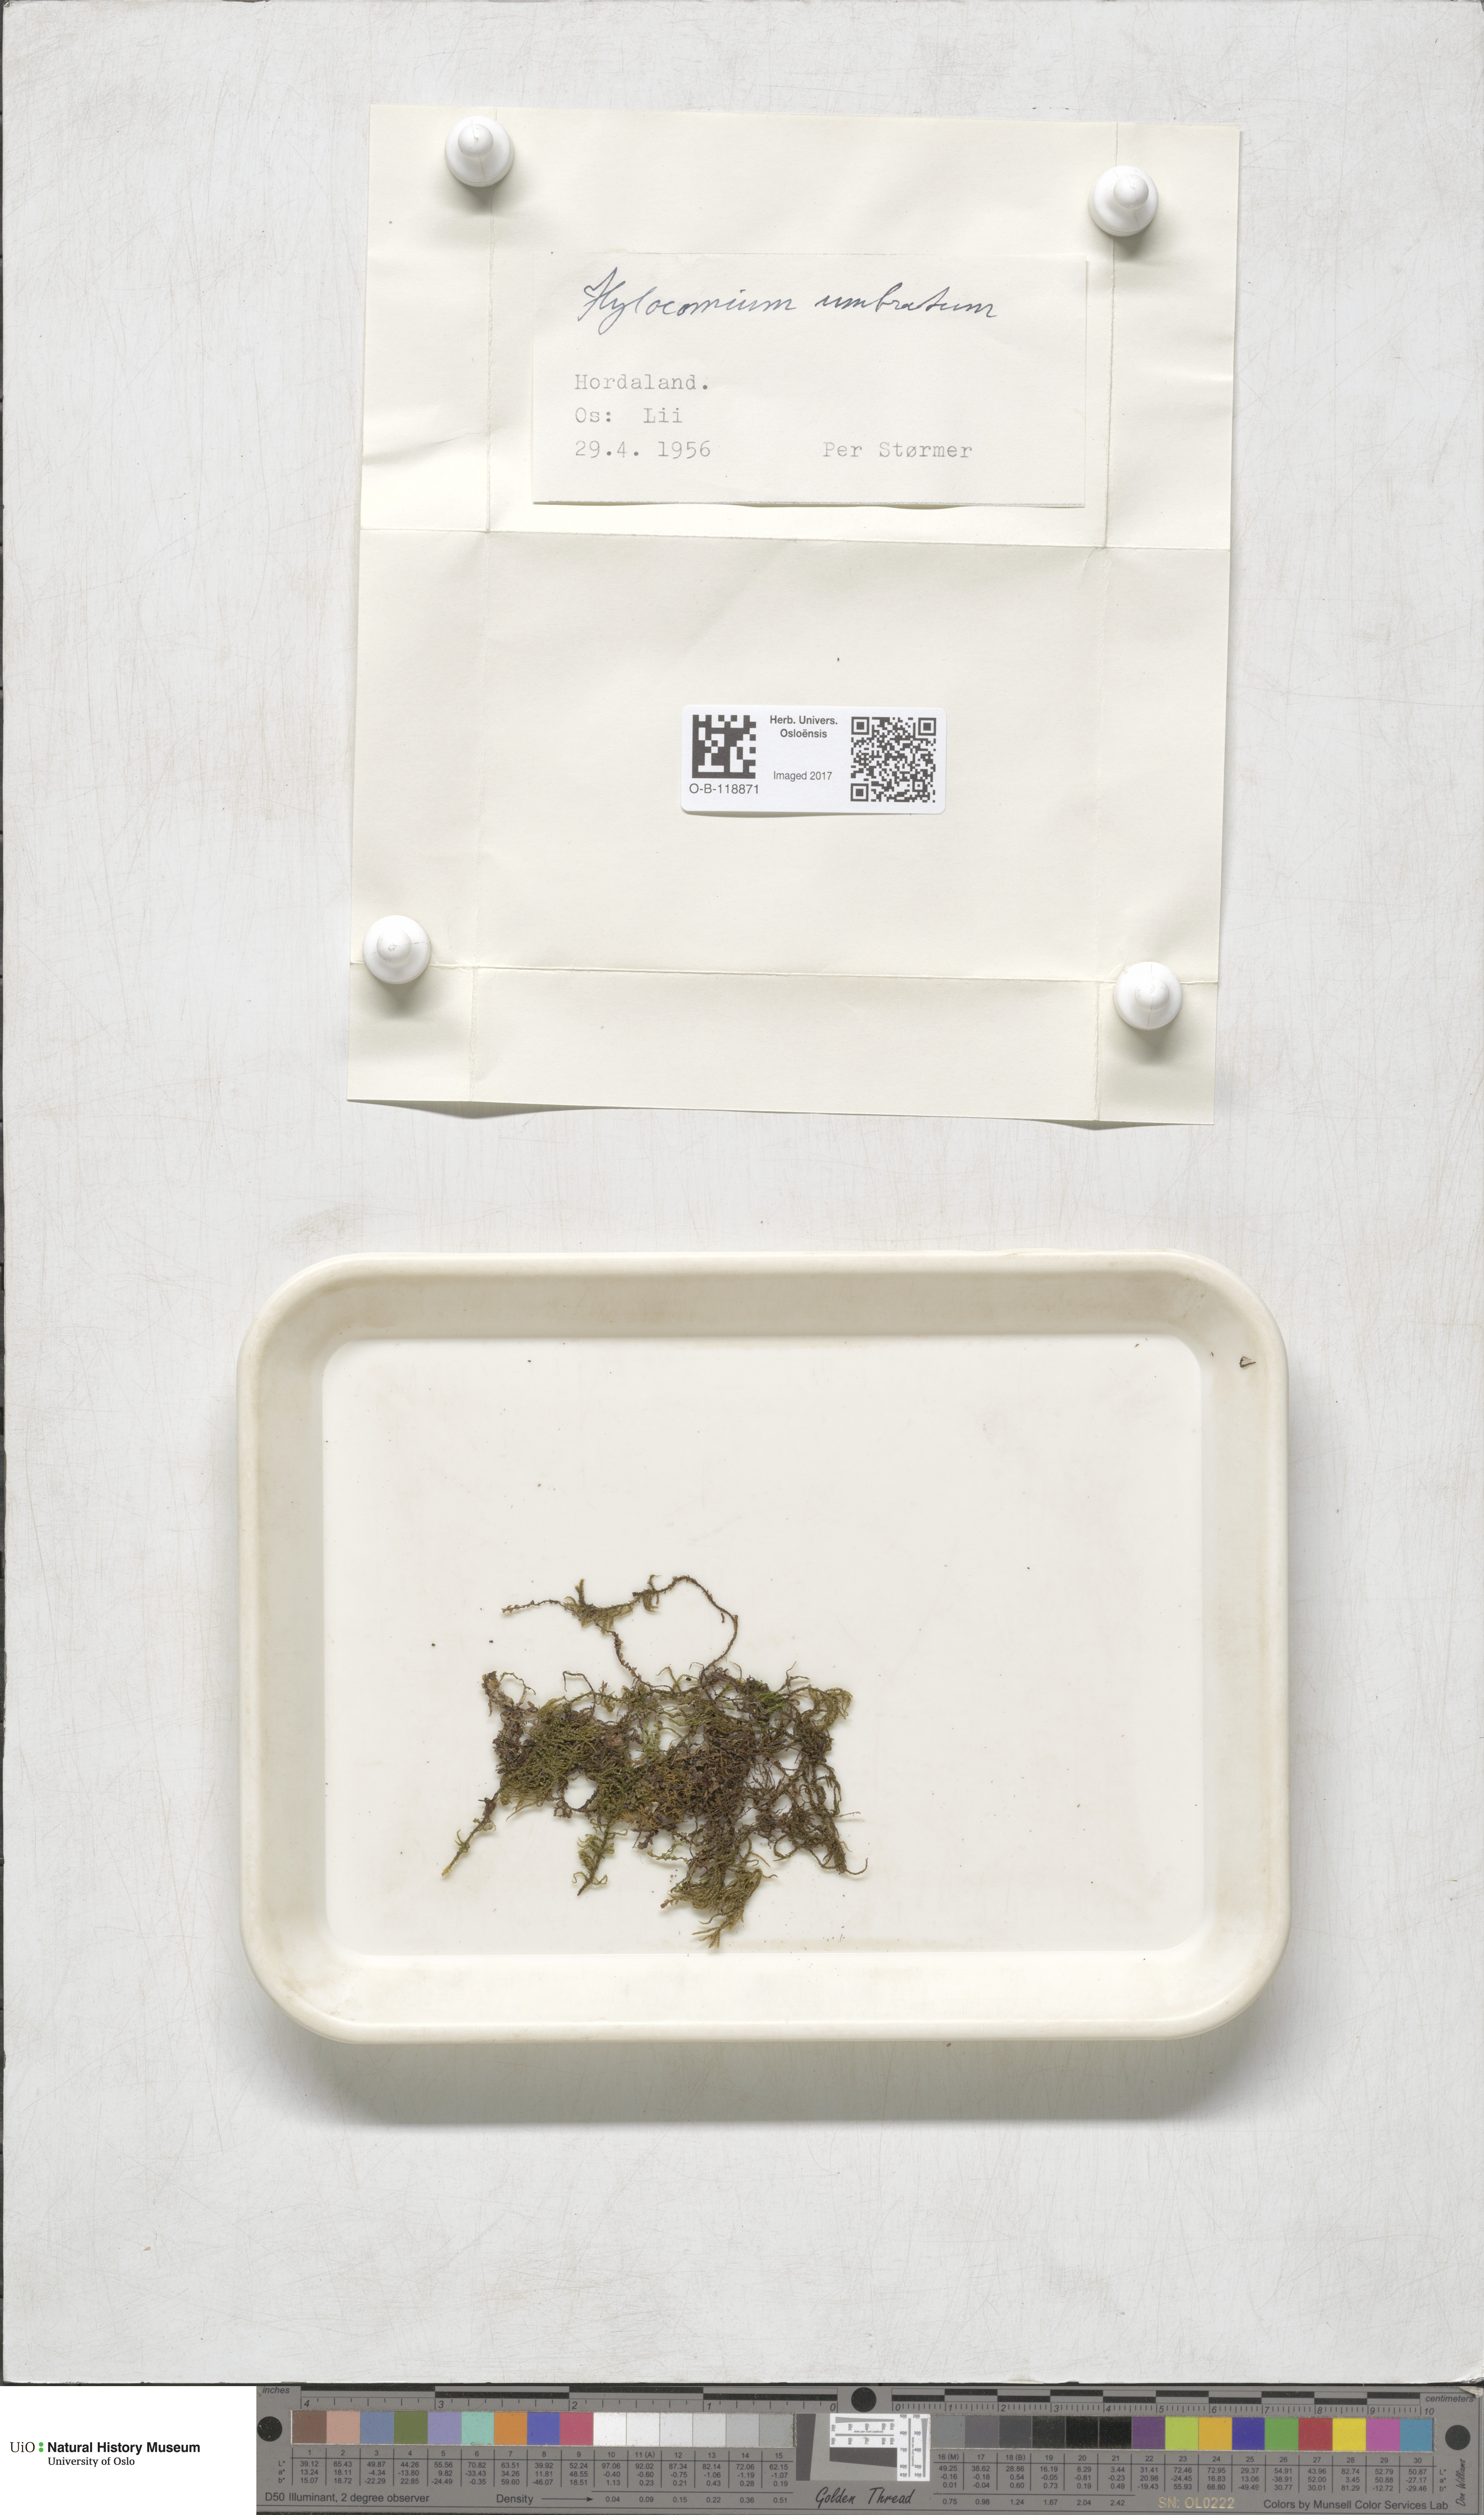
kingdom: Plantae
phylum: Bryophyta
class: Bryopsida
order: Hypnales
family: Hylocomiaceae
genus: Hylocomiastrum
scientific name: Hylocomiastrum umbratum
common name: Shaded woods moss
